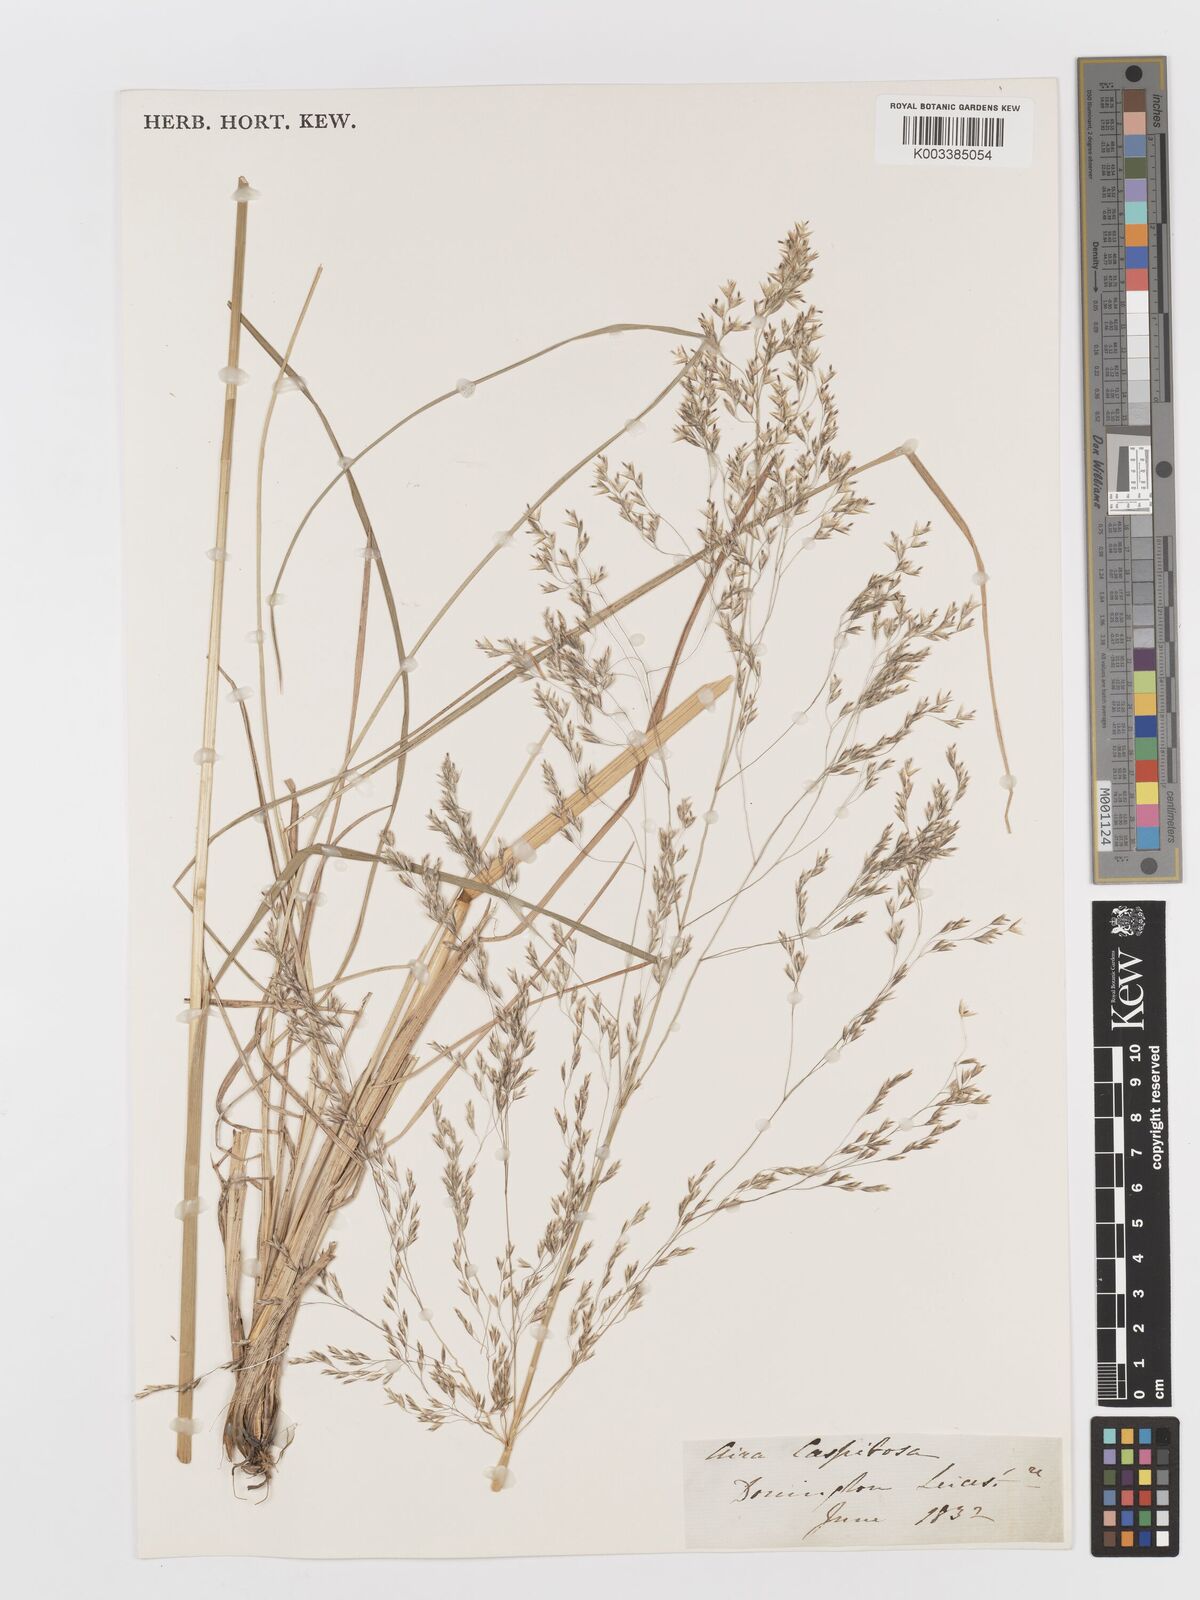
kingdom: Plantae
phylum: Tracheophyta
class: Liliopsida
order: Poales
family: Poaceae
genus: Deschampsia
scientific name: Deschampsia cespitosa
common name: Tufted hair-grass
